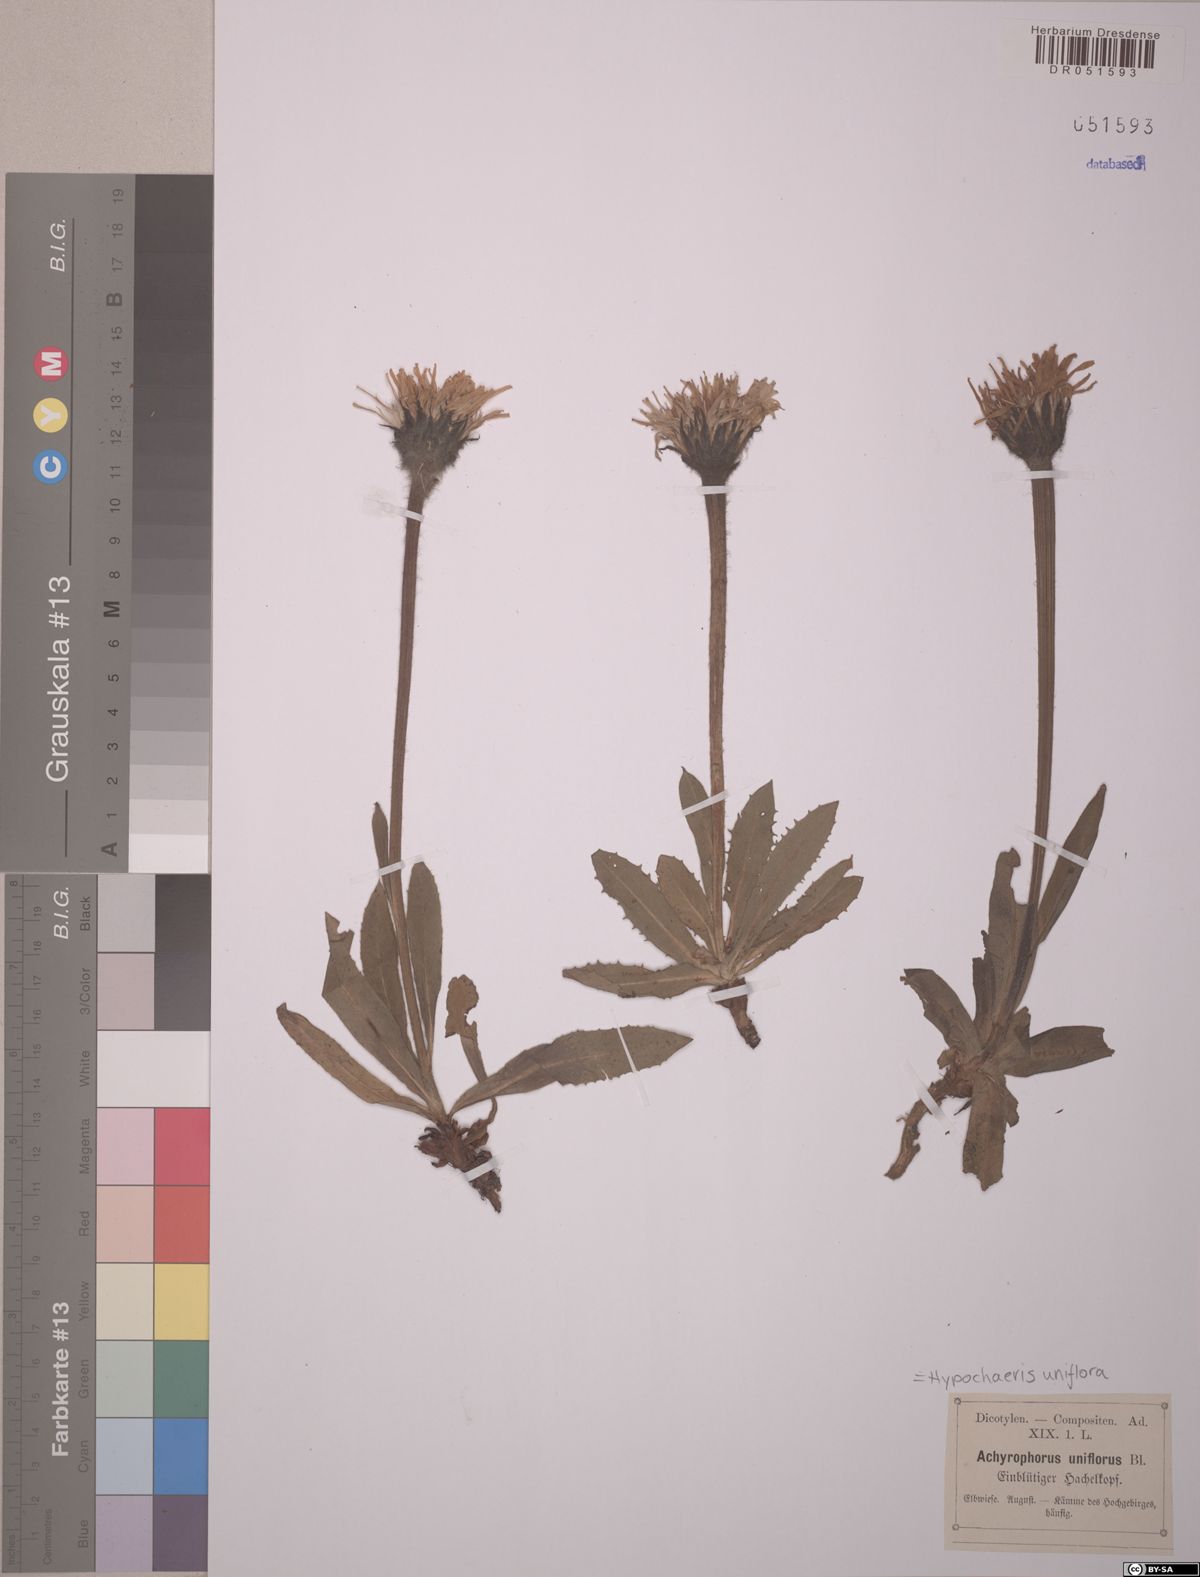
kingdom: Plantae
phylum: Tracheophyta
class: Magnoliopsida
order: Asterales
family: Asteraceae
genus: Trommsdorffia
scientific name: Trommsdorffia uniflora
